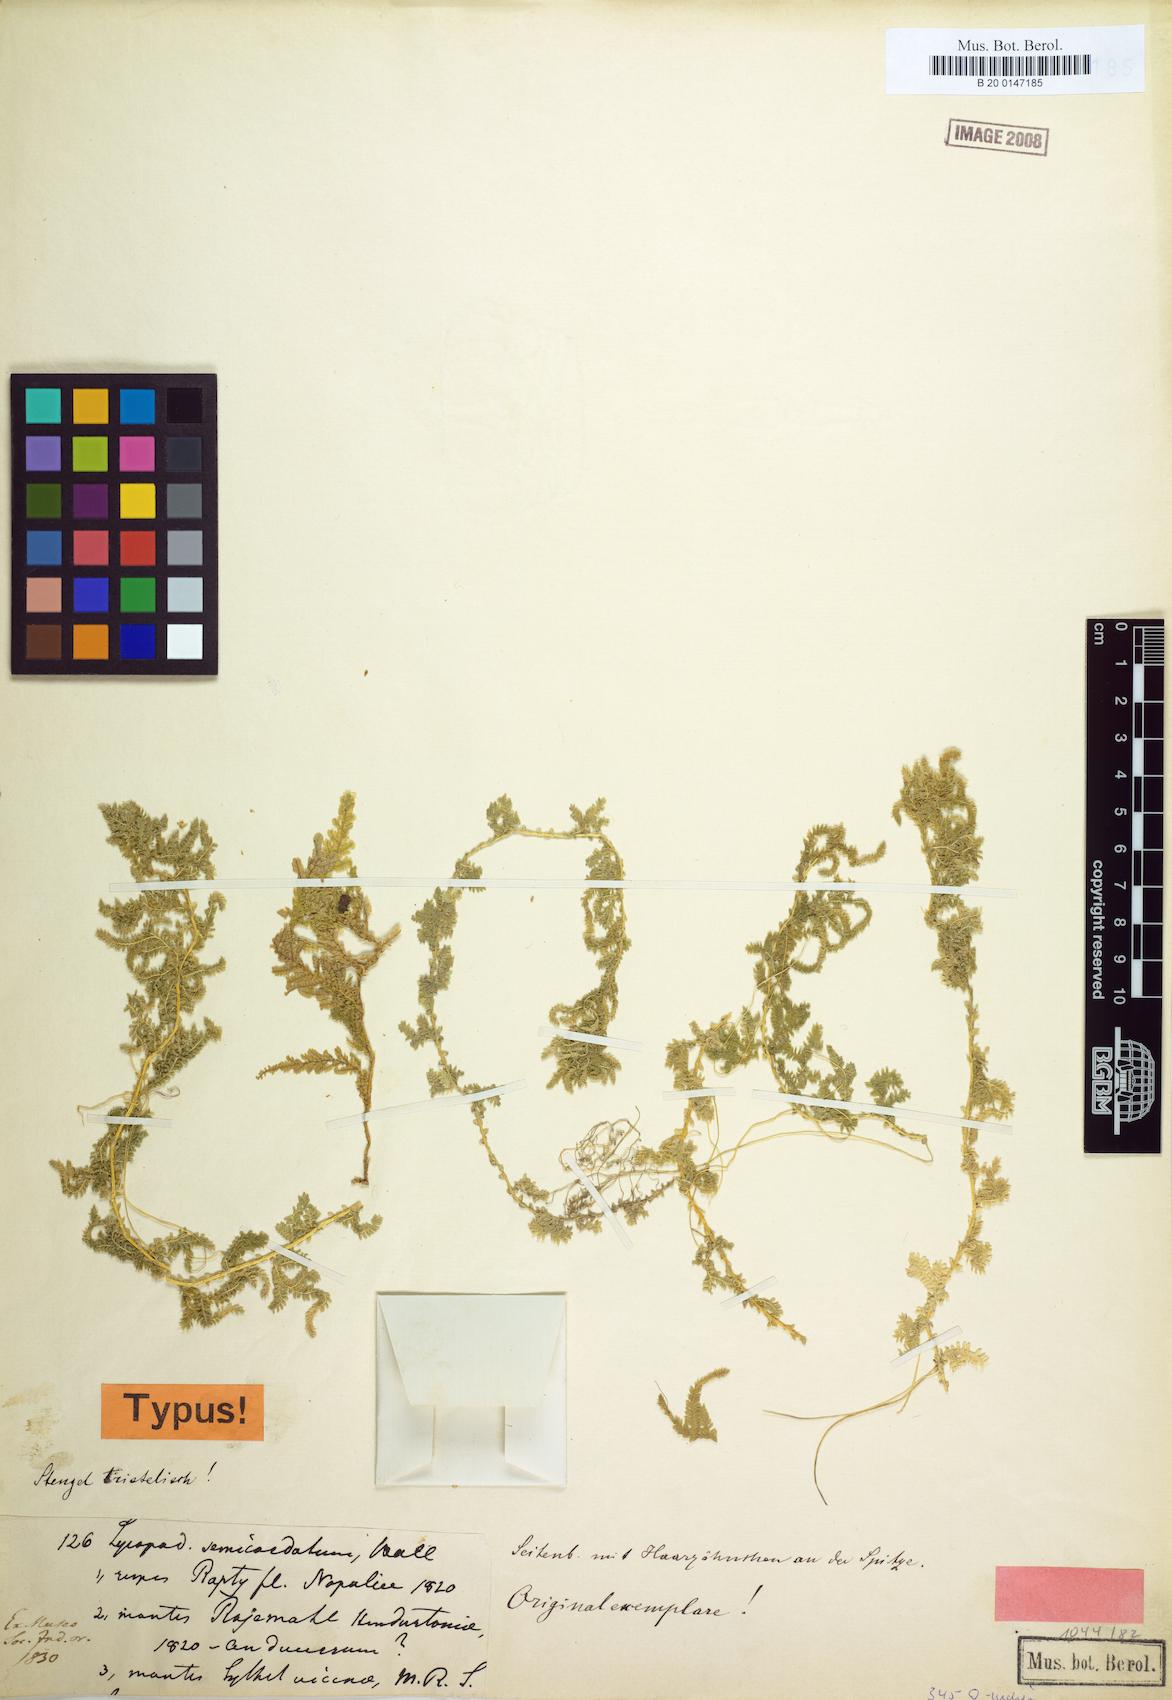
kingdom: Plantae
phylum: Tracheophyta
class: Lycopodiopsida
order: Selaginellales
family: Selaginellaceae
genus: Selaginella
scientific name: Selaginella semicordata
